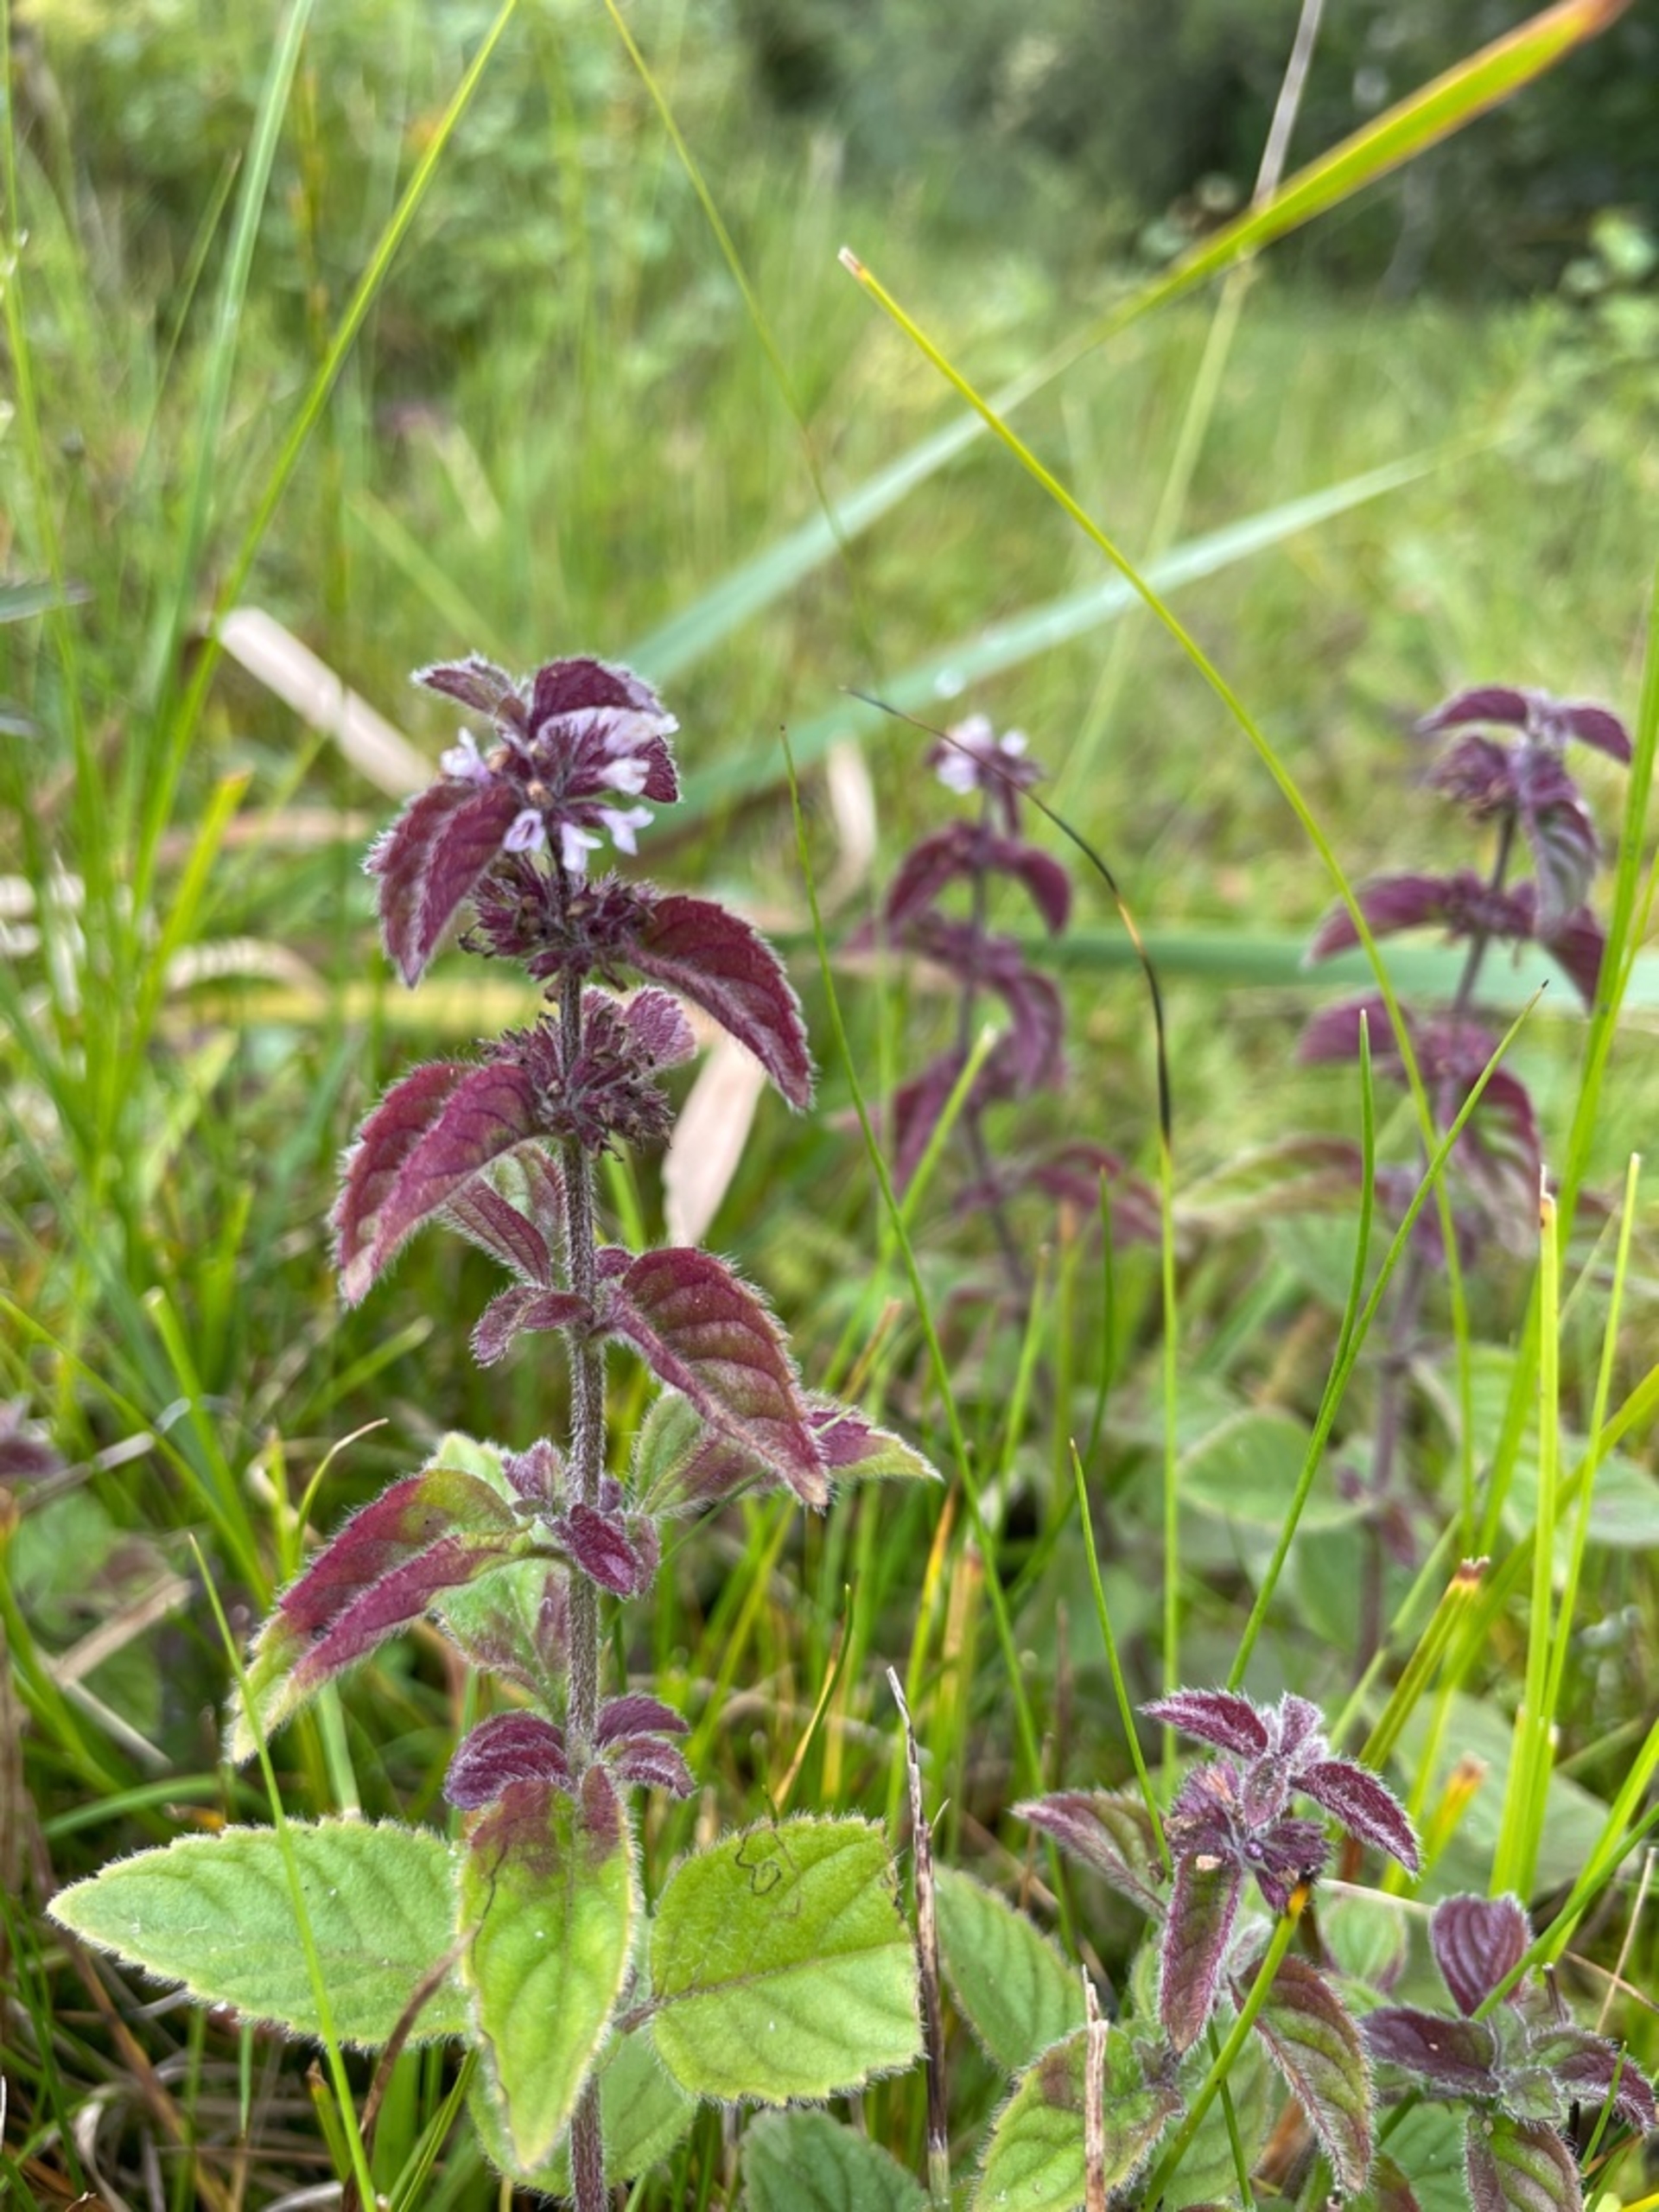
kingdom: Plantae
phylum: Tracheophyta
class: Magnoliopsida
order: Lamiales
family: Lamiaceae
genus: Mentha
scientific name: Mentha verticillata
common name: Krans-mynte
